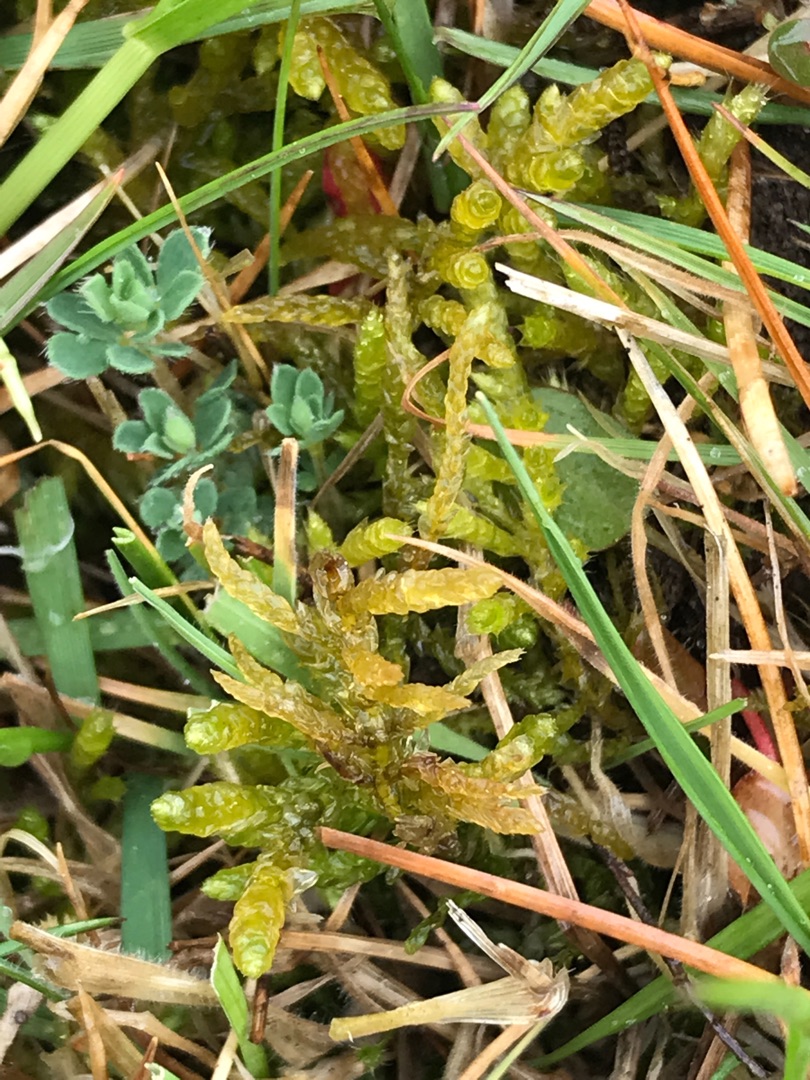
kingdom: Plantae
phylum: Bryophyta
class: Bryopsida
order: Hypnales
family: Brachytheciaceae
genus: Pseudoscleropodium
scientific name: Pseudoscleropodium purum
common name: Hulbladet fedtmos
